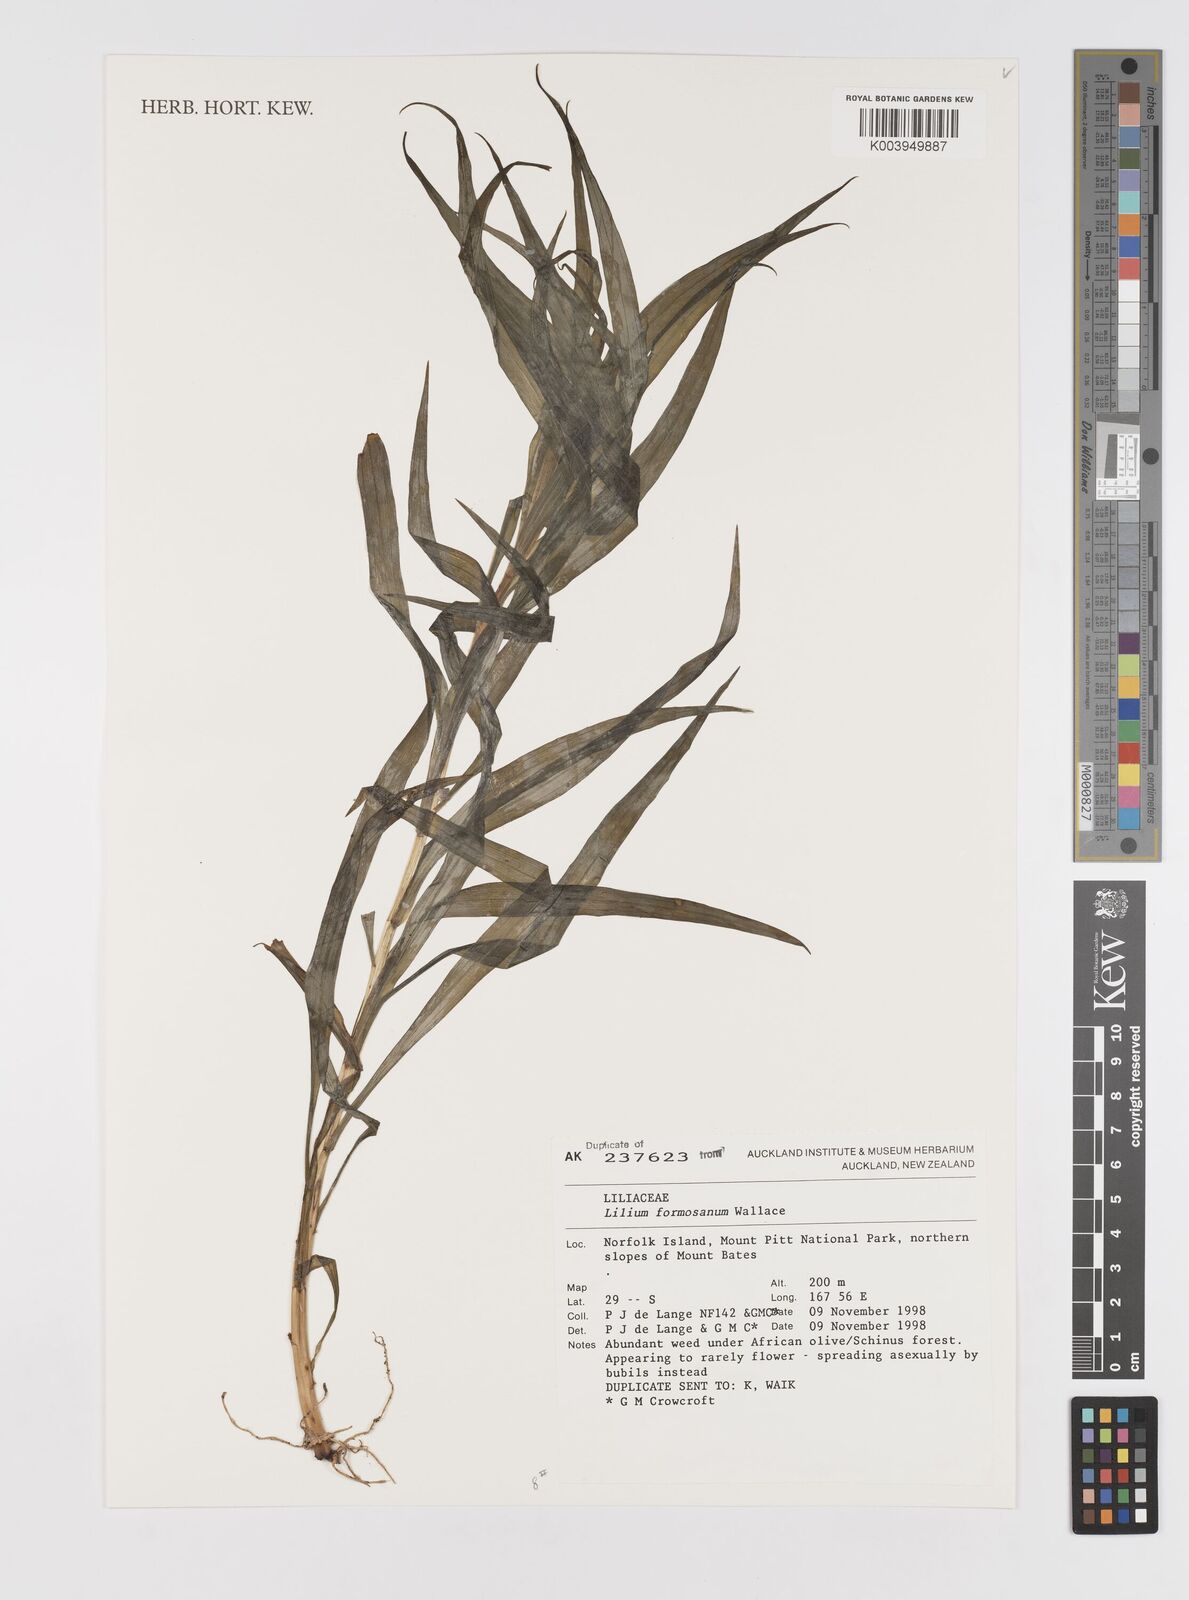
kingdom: Plantae
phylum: Tracheophyta
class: Liliopsida
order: Liliales
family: Liliaceae
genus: Lilium
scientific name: Lilium
